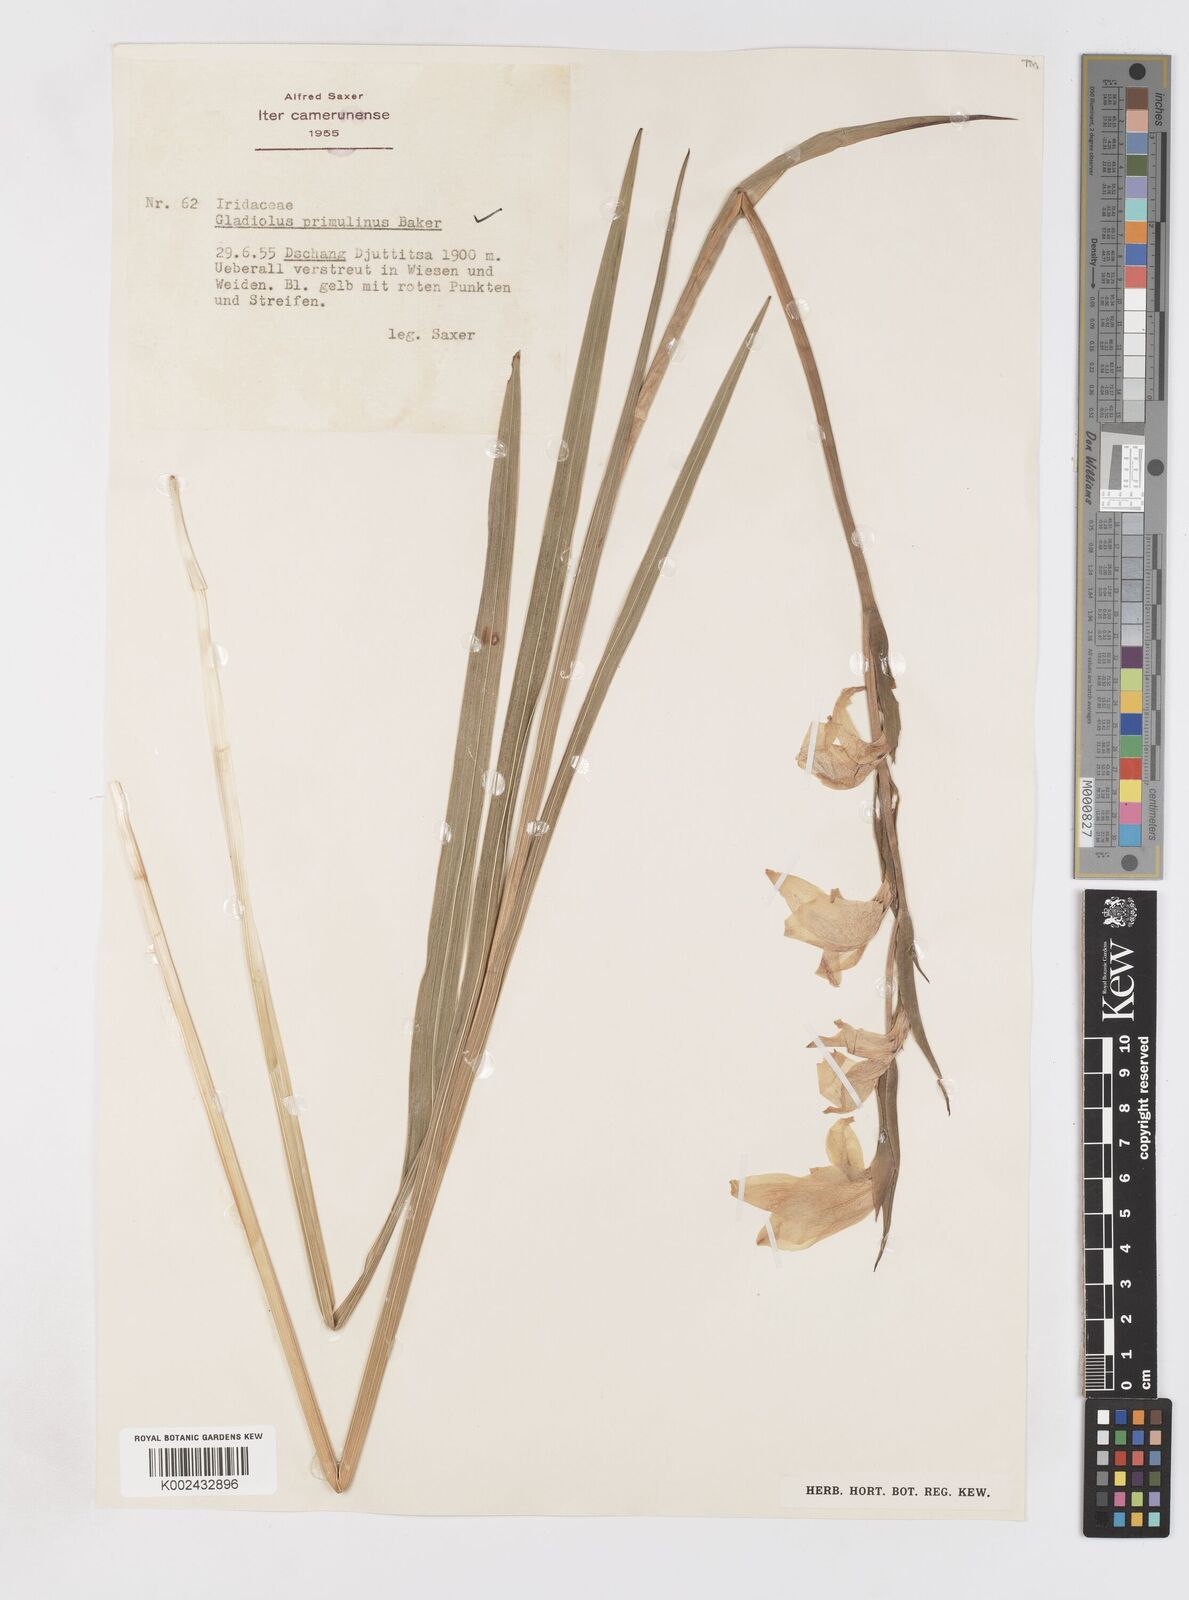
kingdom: Plantae
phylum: Tracheophyta
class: Liliopsida
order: Asparagales
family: Iridaceae
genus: Gladiolus
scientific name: Gladiolus dalenii
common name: Cornflag
